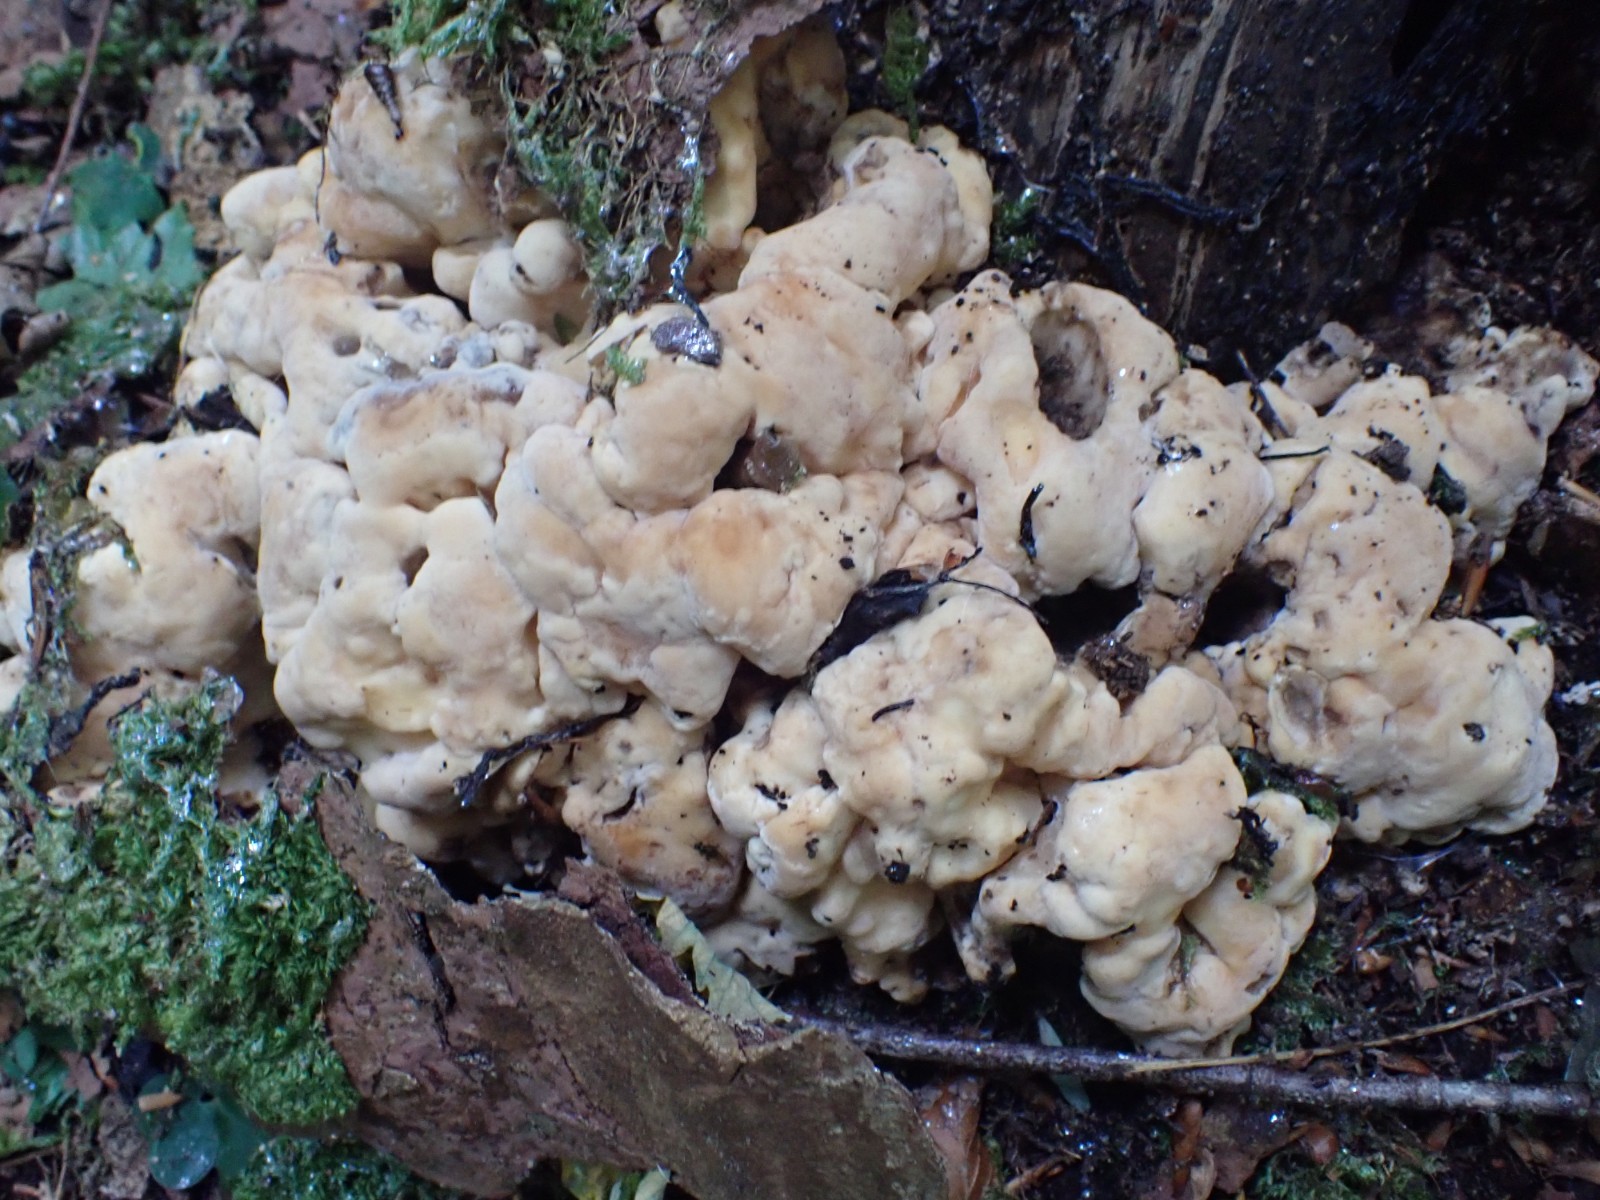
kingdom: Fungi
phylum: Basidiomycota
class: Agaricomycetes
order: Polyporales
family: Laetiporaceae
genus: Phaeolus
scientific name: Phaeolus schweinitzii
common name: brunporesvamp
